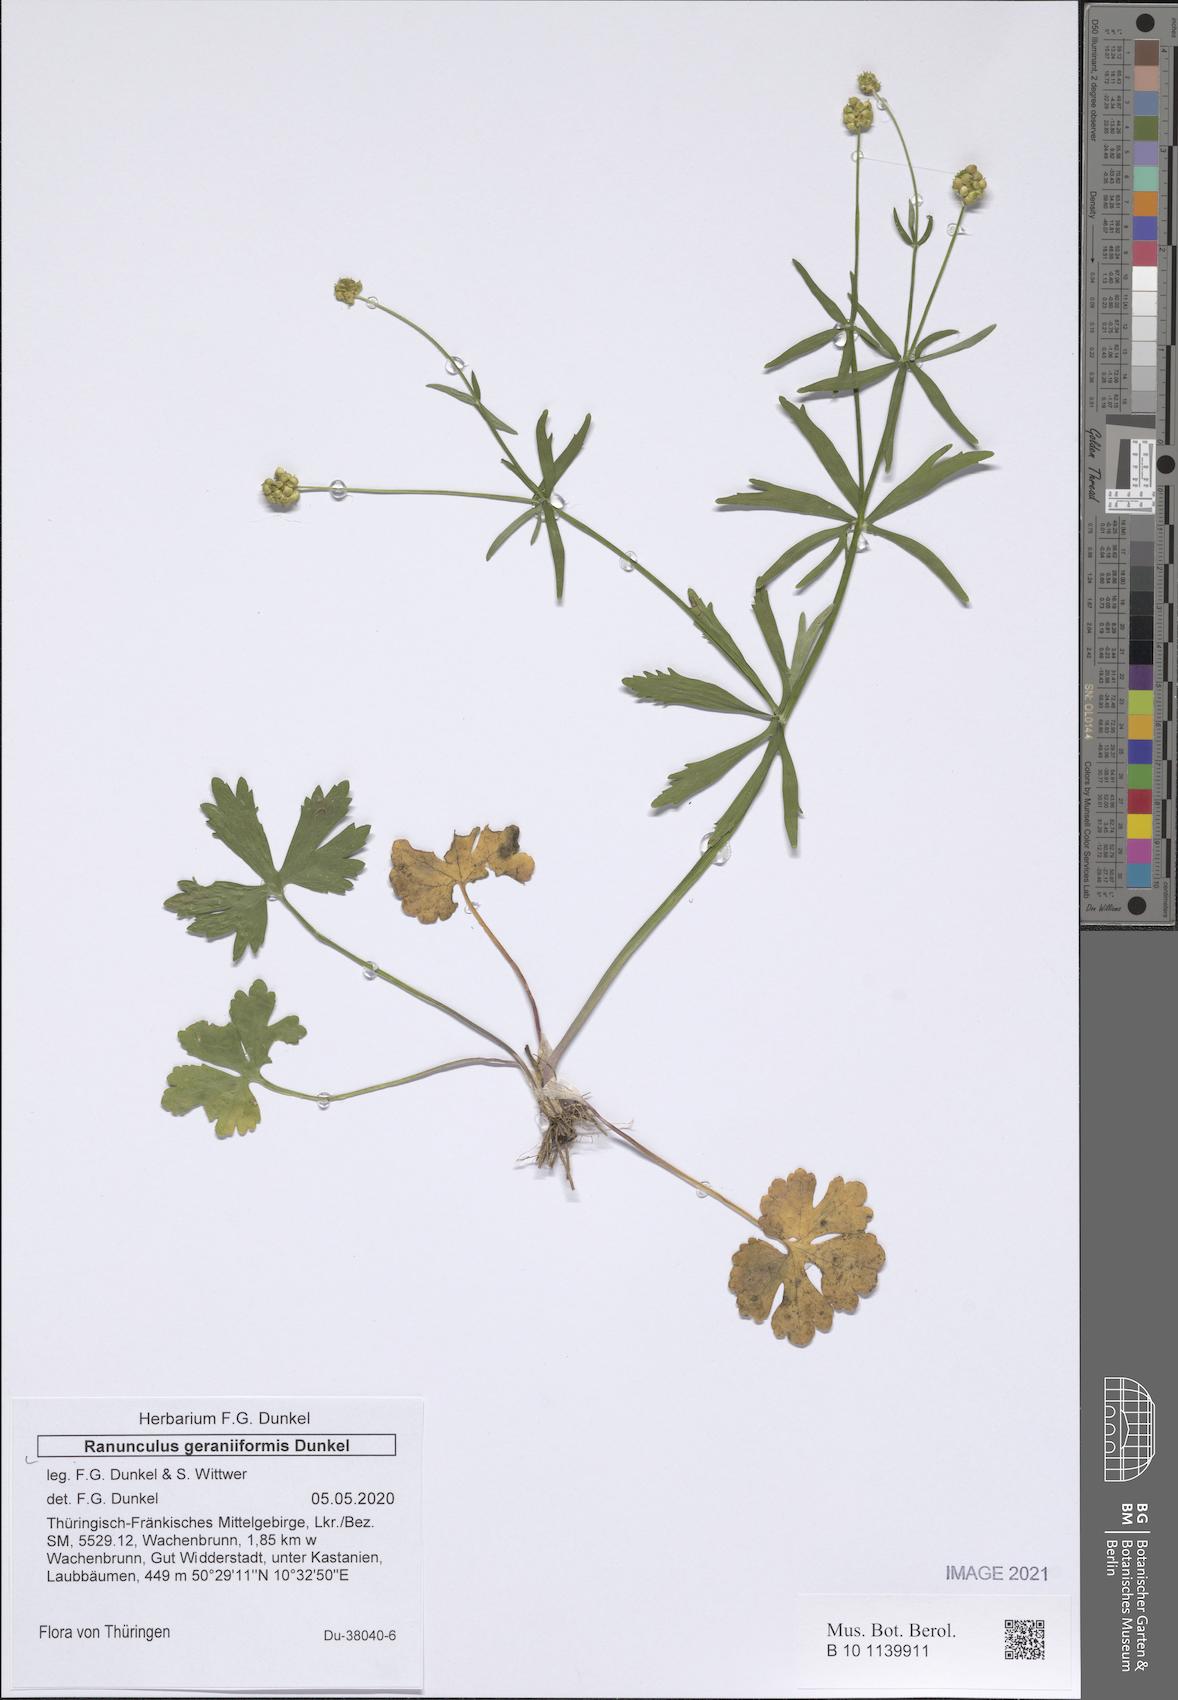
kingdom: Plantae
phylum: Tracheophyta
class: Magnoliopsida
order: Ranunculales
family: Ranunculaceae
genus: Ranunculus
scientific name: Ranunculus geraniiformis
